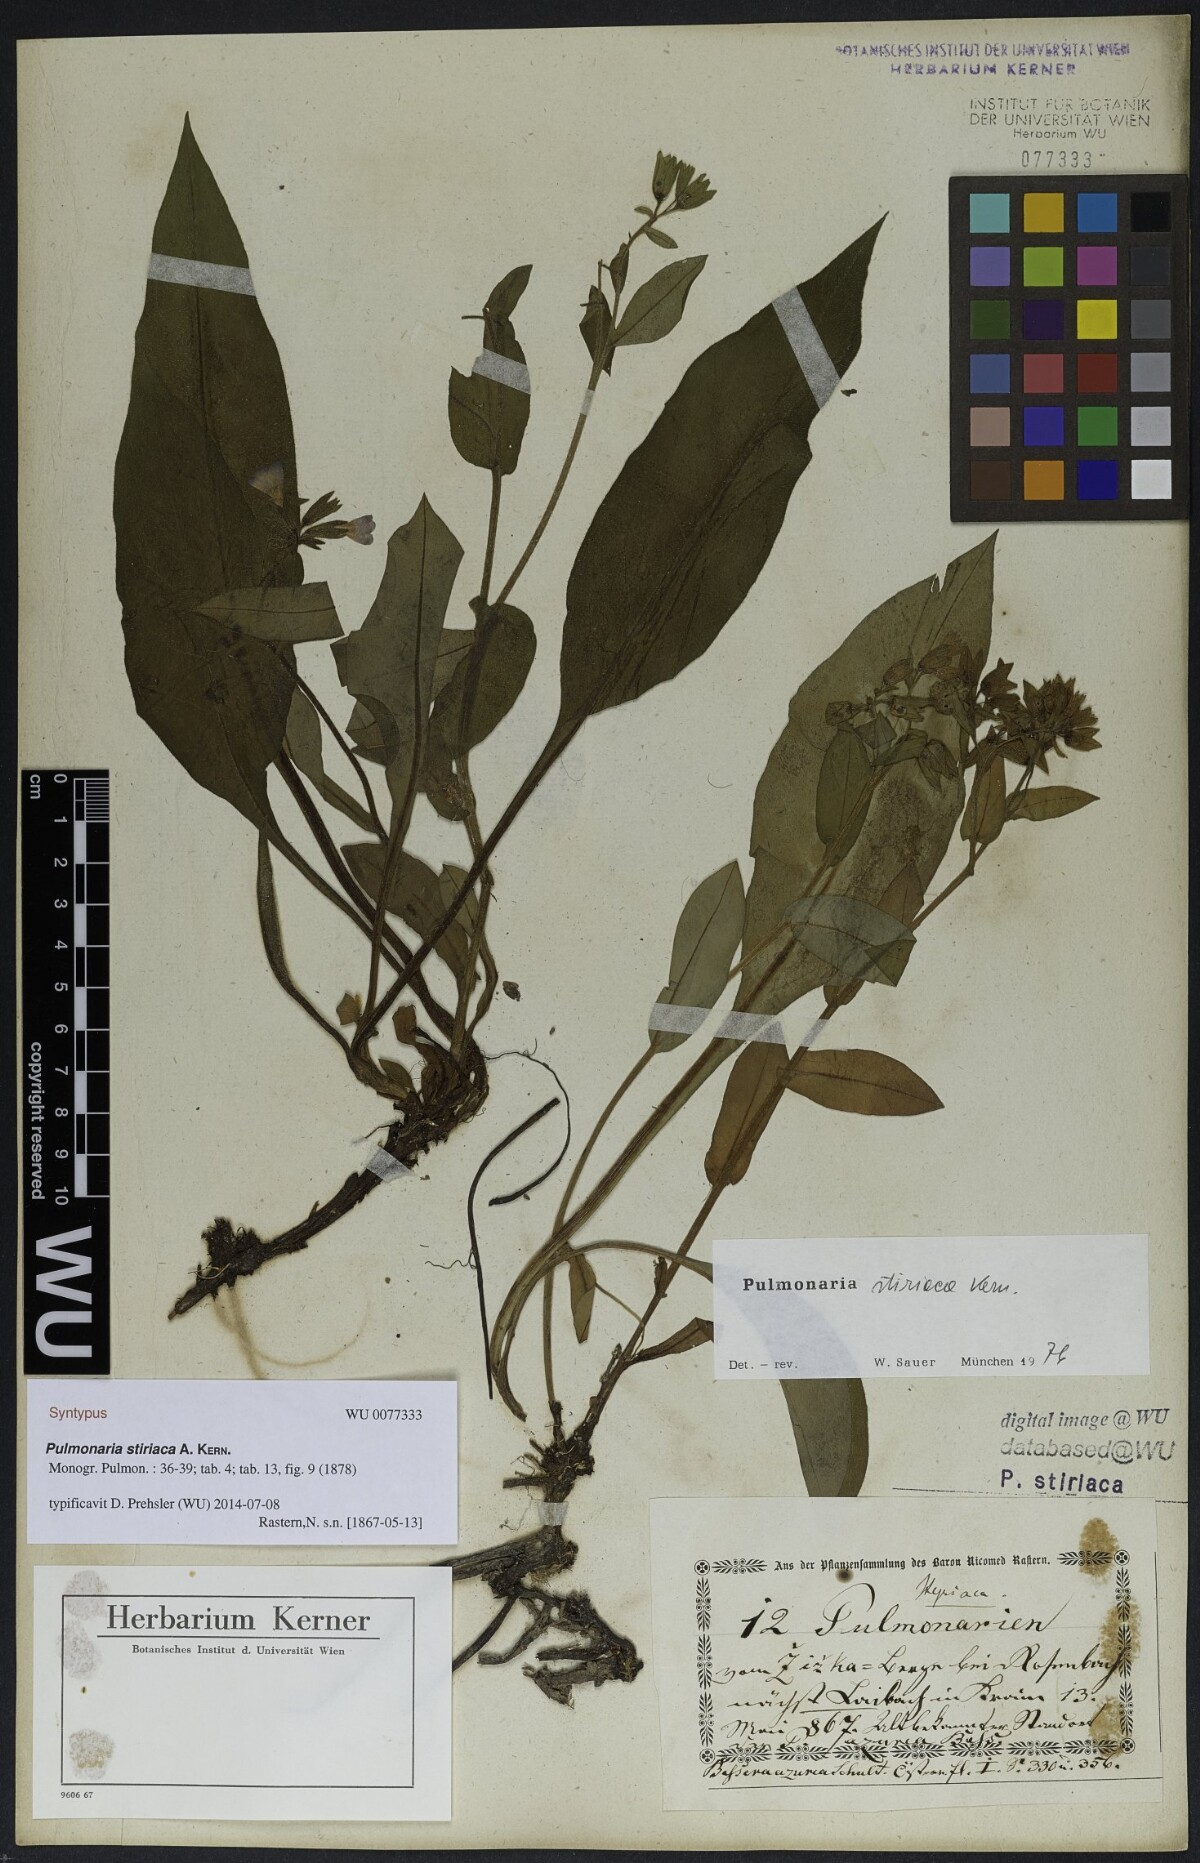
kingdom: Plantae
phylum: Tracheophyta
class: Magnoliopsida
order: Boraginales
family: Boraginaceae
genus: Pulmonaria
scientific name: Pulmonaria stiriaca
